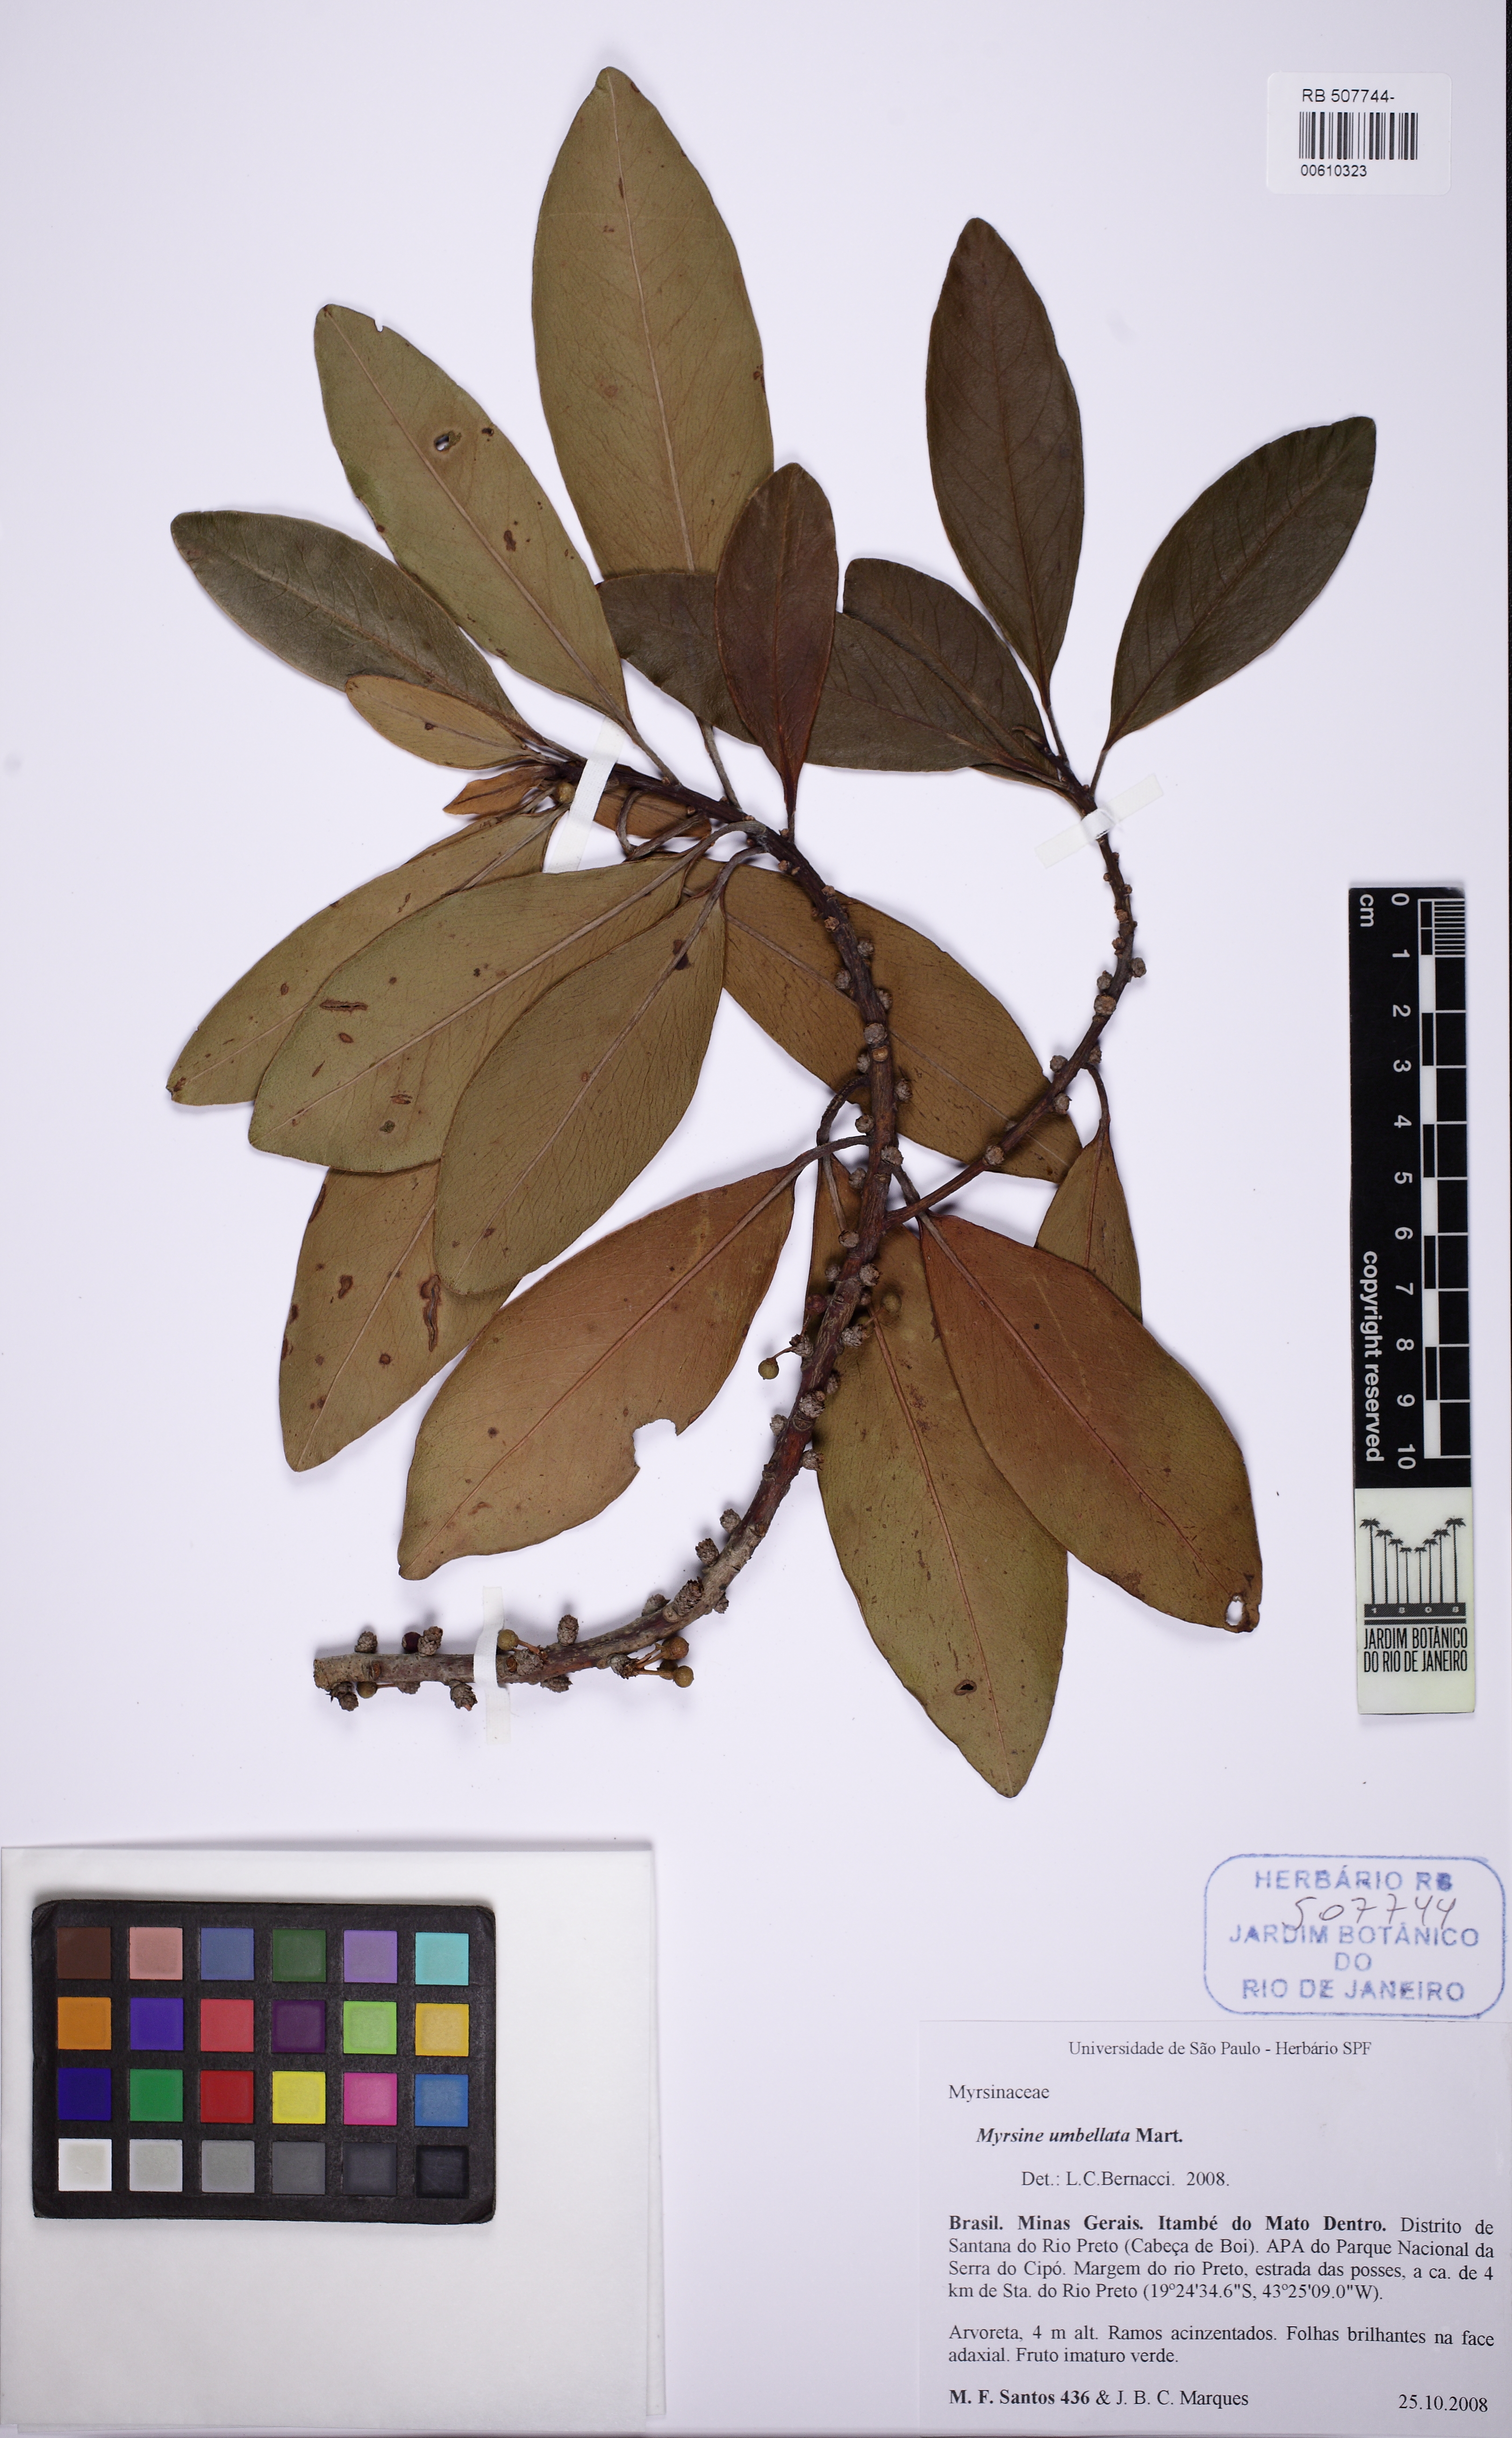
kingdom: Plantae
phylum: Tracheophyta
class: Magnoliopsida
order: Ericales
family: Primulaceae
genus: Myrsine
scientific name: Myrsine umbellata
